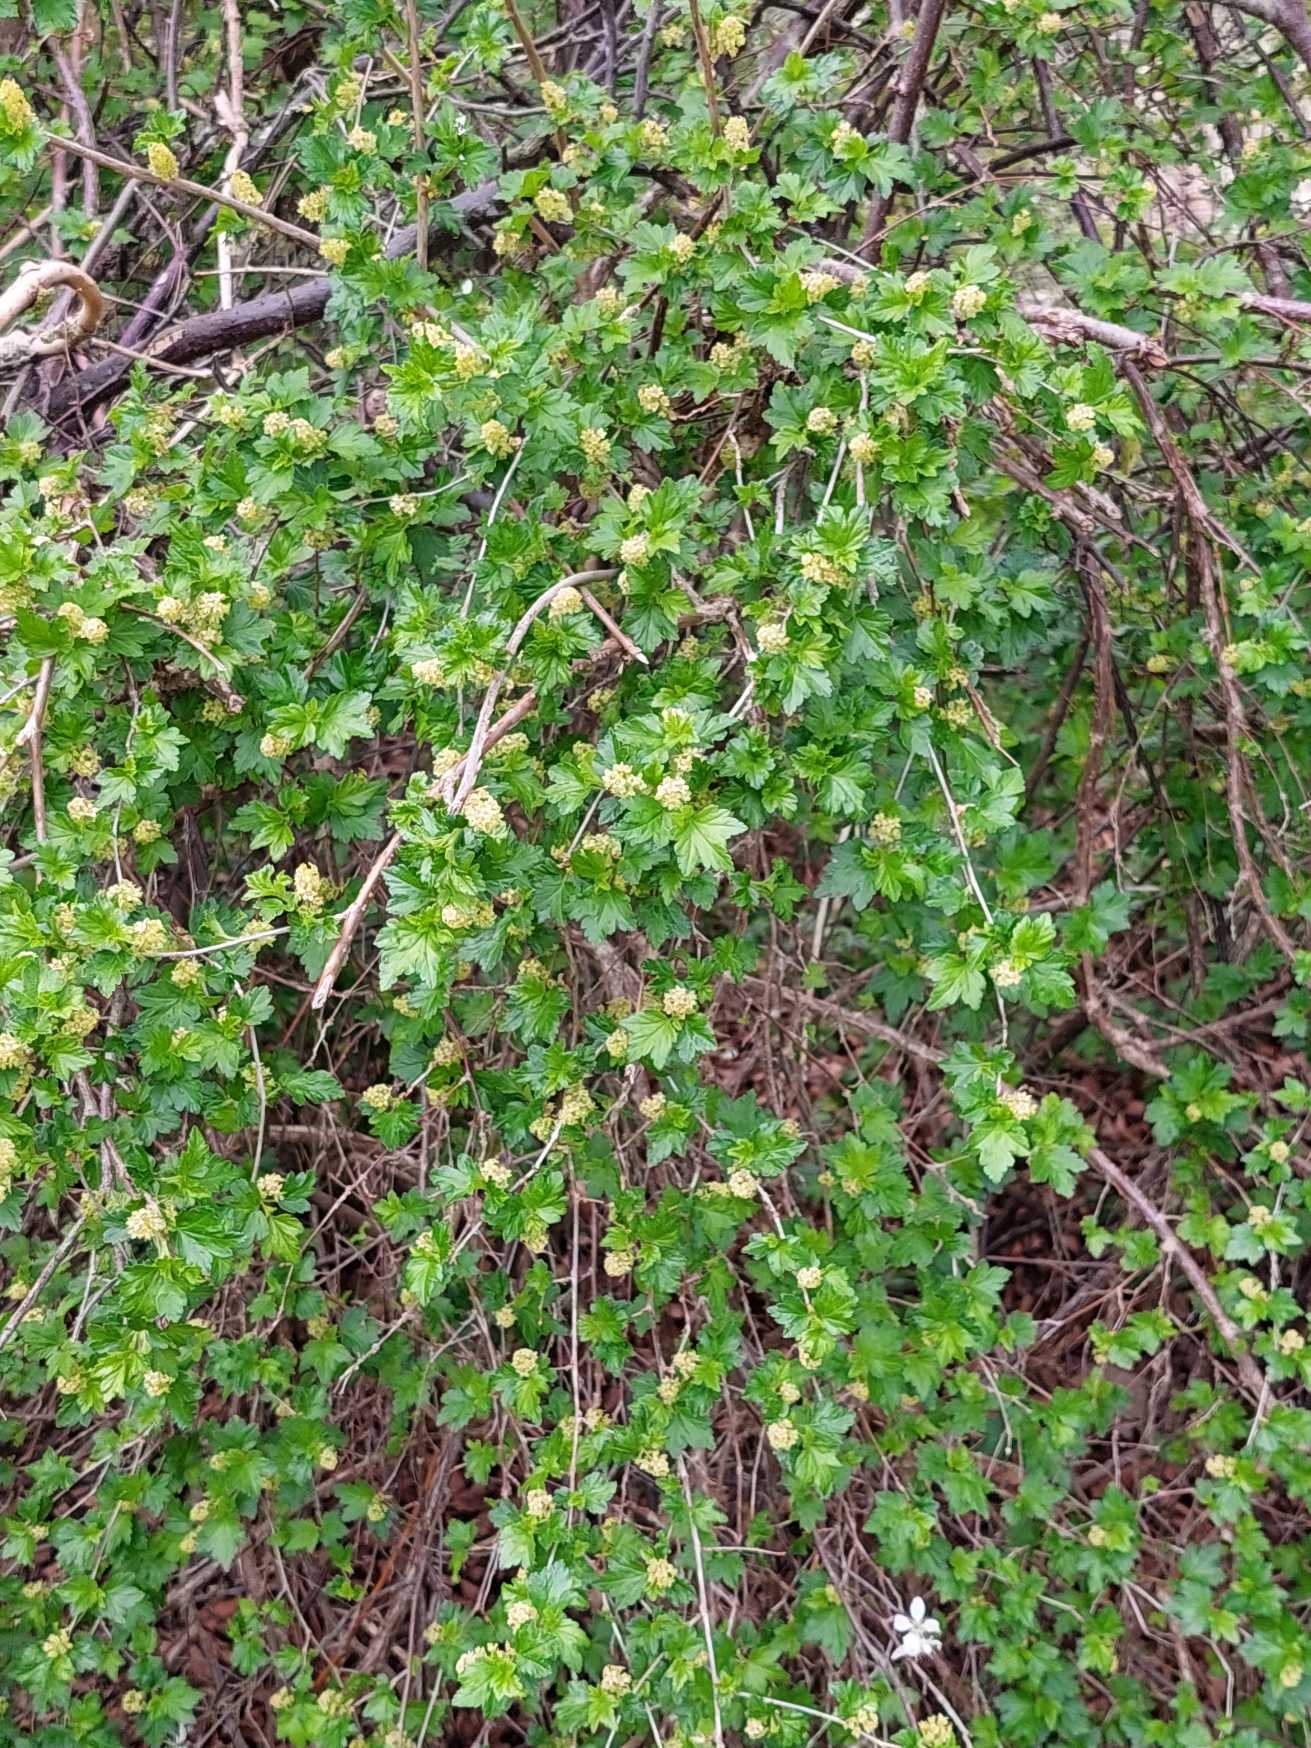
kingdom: Plantae
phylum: Tracheophyta
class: Magnoliopsida
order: Saxifragales
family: Grossulariaceae
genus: Ribes
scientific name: Ribes alpinum
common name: Fjeld-ribs
